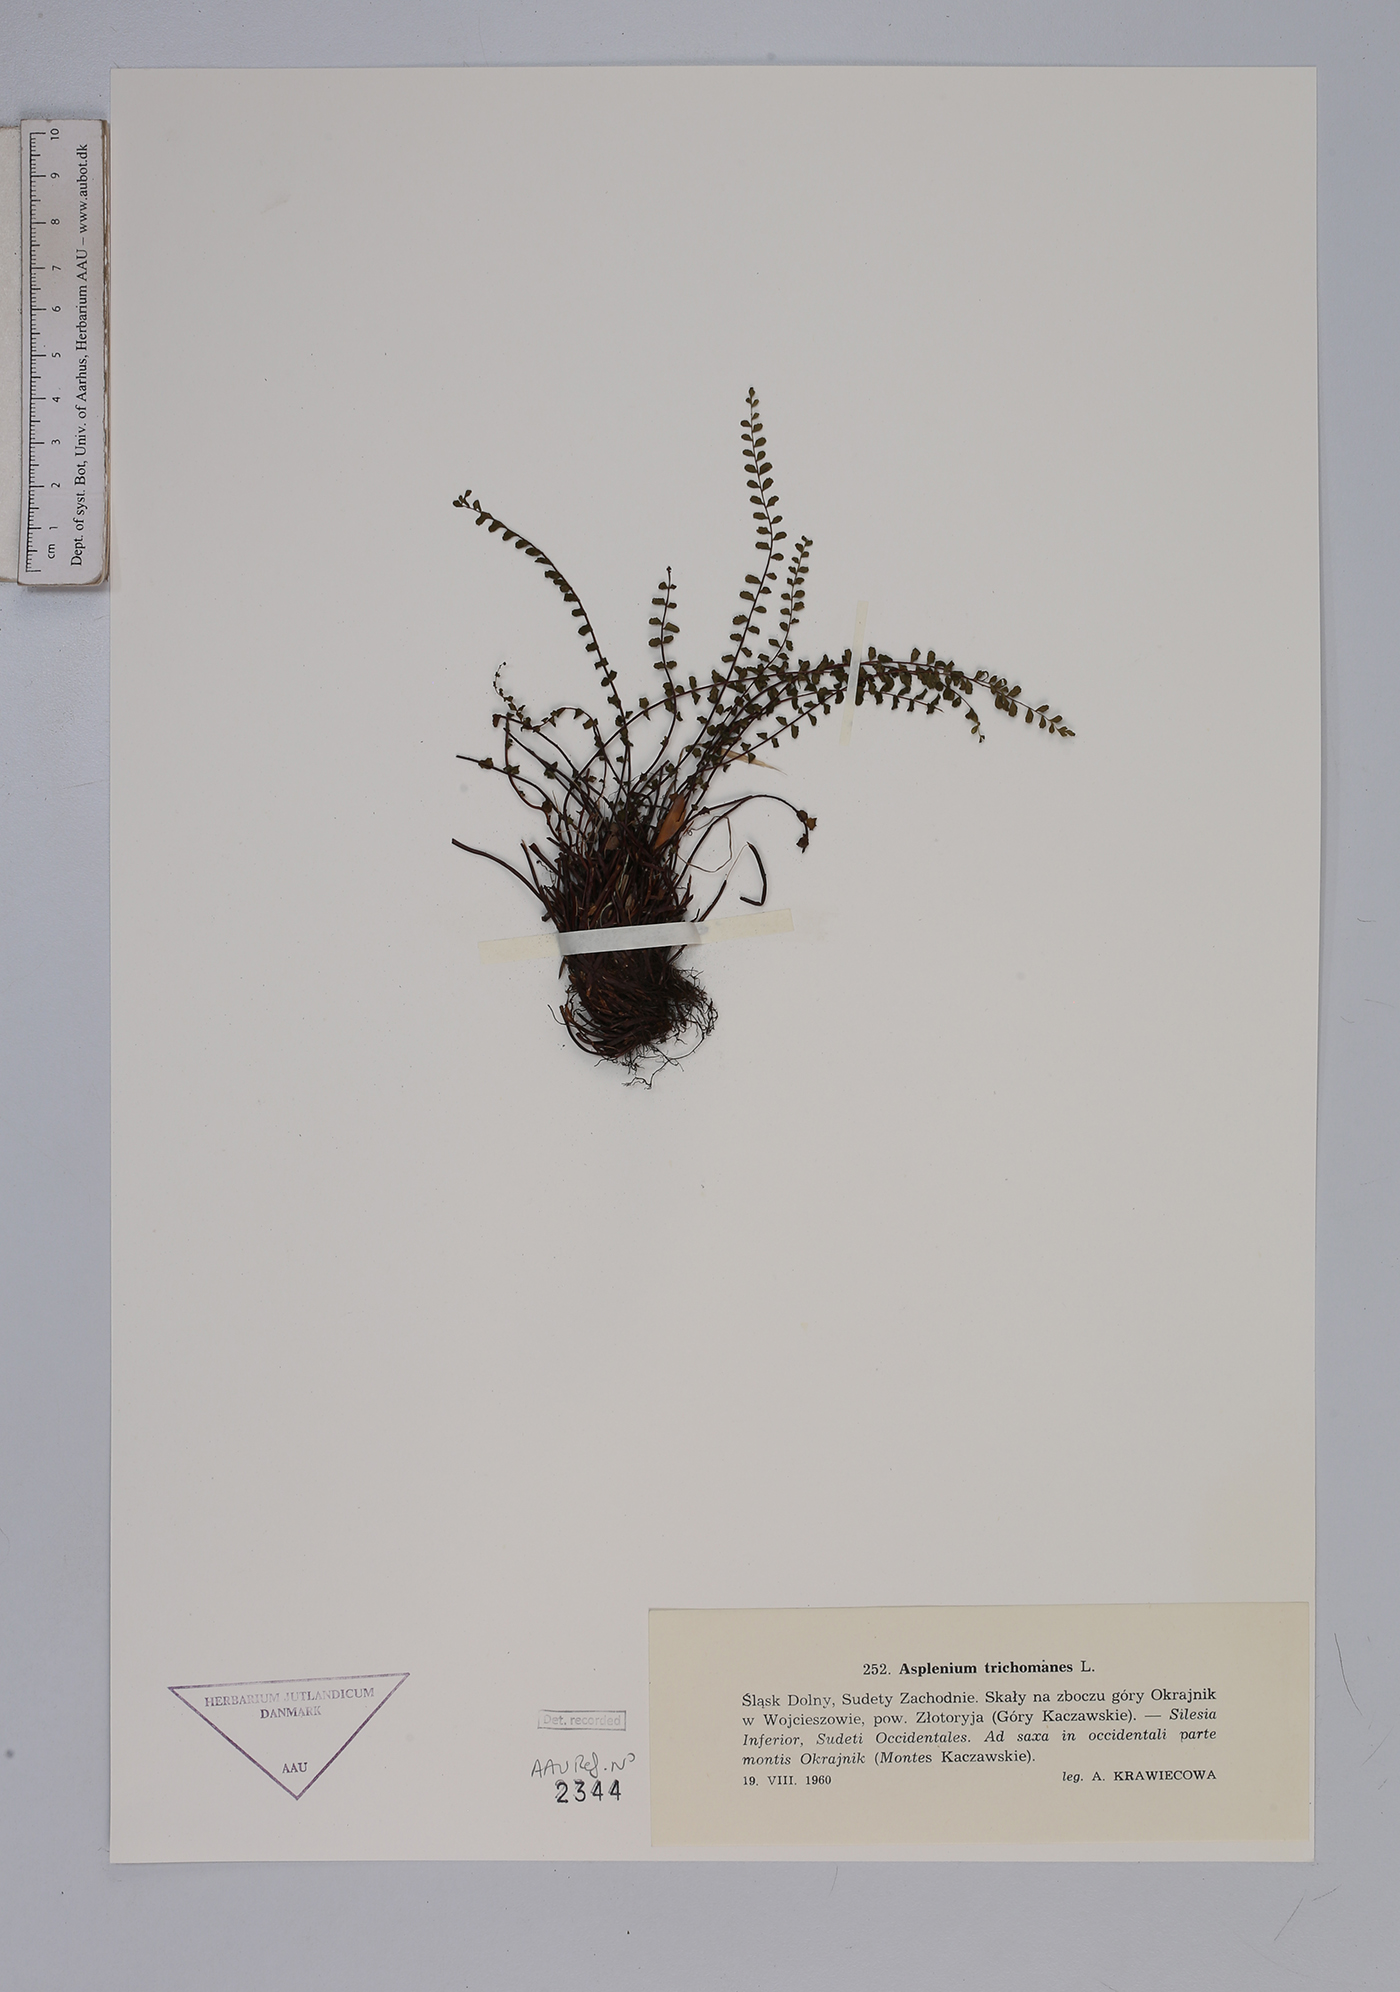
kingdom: Plantae
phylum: Tracheophyta
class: Polypodiopsida
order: Polypodiales
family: Aspleniaceae
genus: Asplenium
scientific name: Asplenium trichomanes
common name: Maidenhair spleenwort
